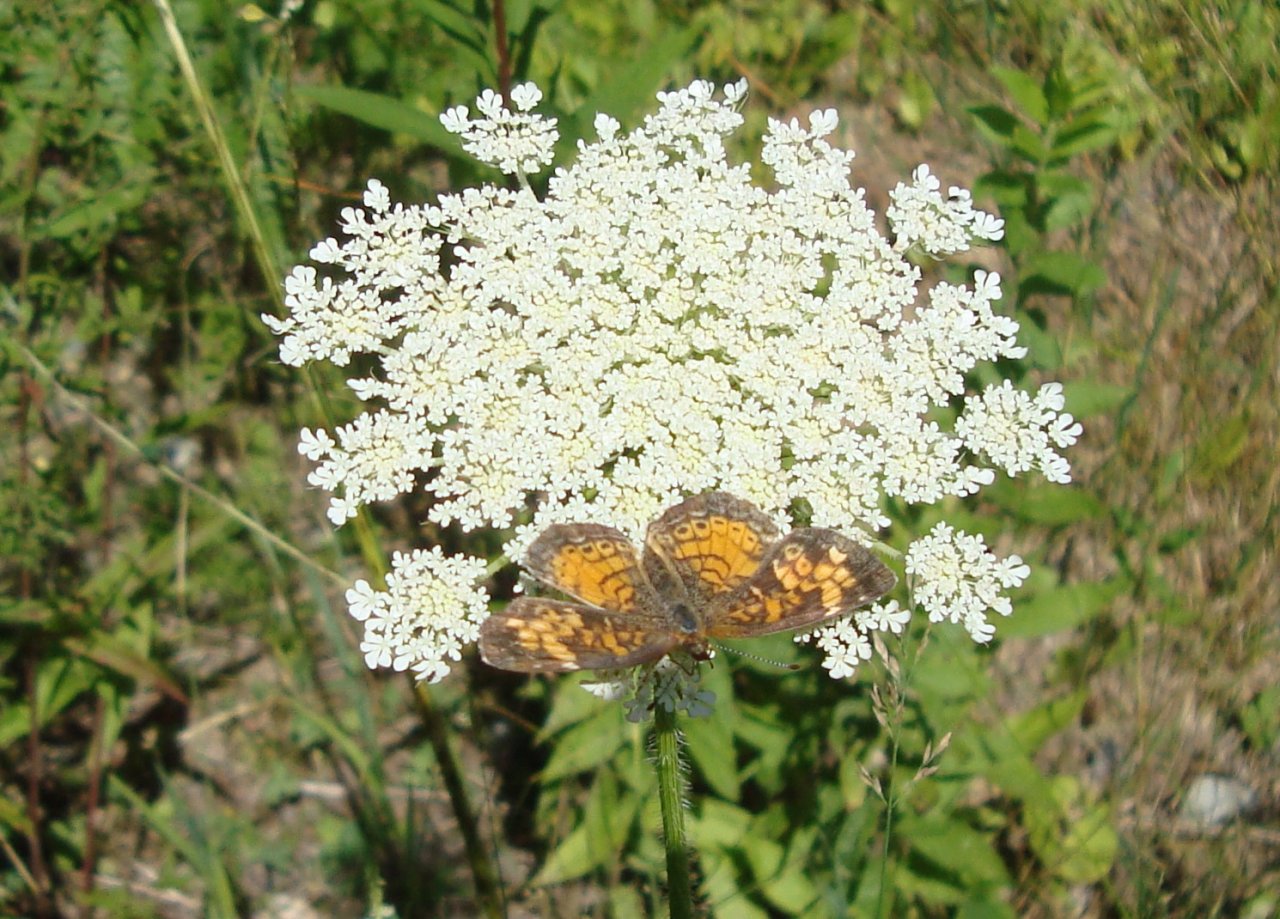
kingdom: Animalia
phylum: Arthropoda
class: Insecta
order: Lepidoptera
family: Nymphalidae
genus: Phyciodes
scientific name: Phyciodes tharos
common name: Northern Crescent
